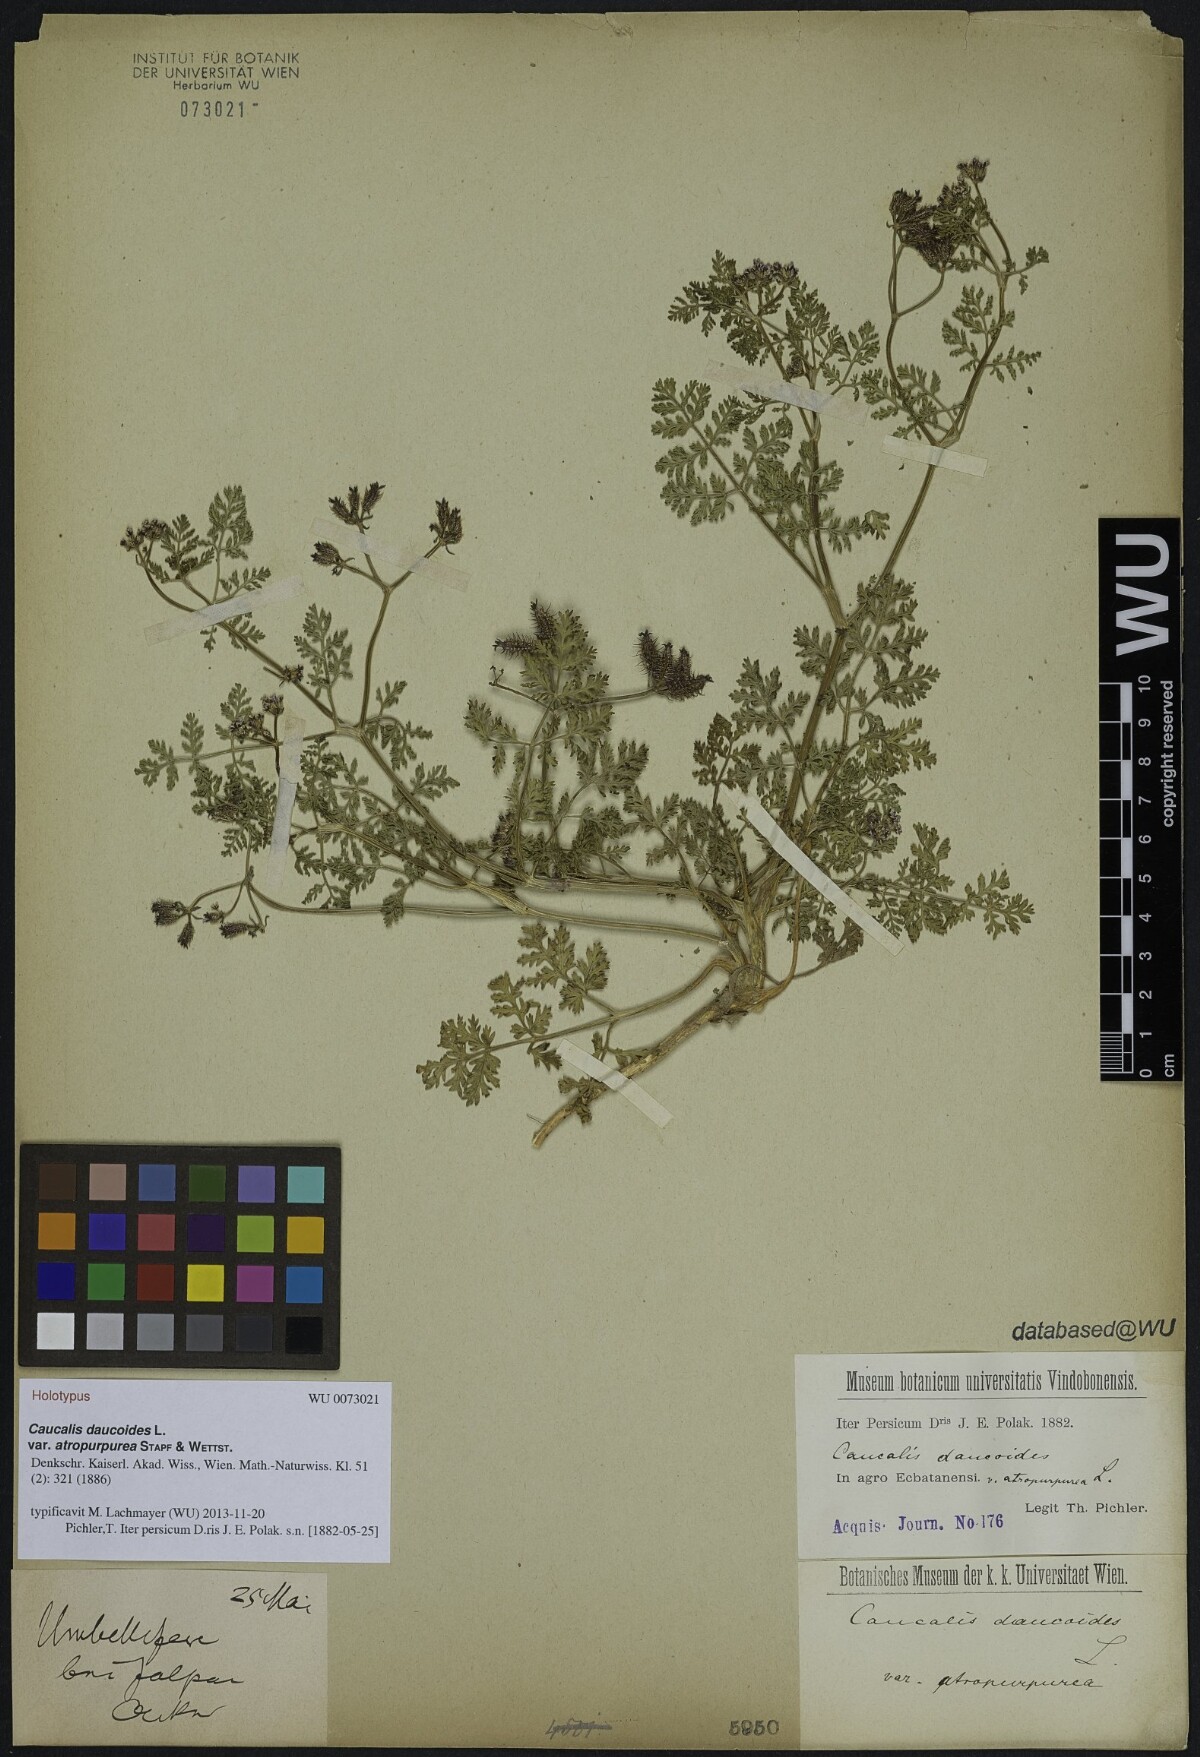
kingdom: Plantae
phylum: Tracheophyta
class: Magnoliopsida
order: Apiales
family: Apiaceae
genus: Orlaya
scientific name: Orlaya daucoides
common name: Flat-fruit orlaya
